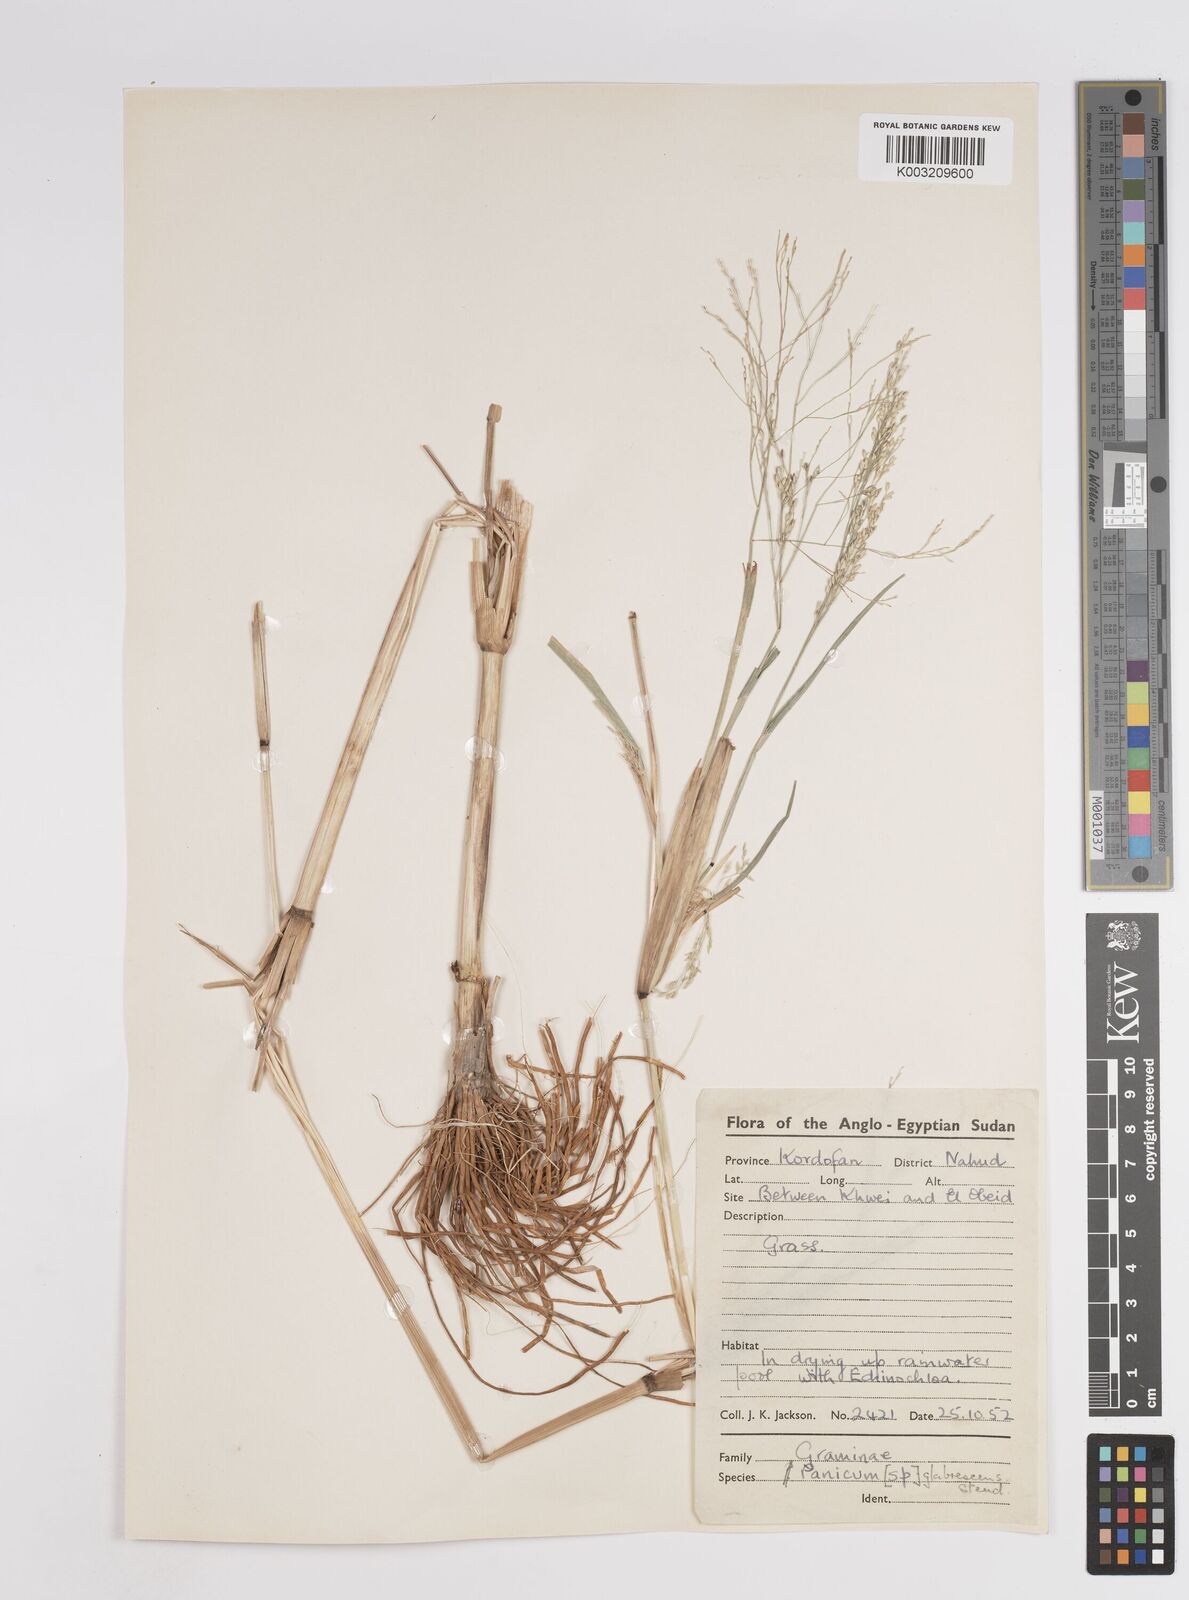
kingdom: Plantae
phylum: Tracheophyta
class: Liliopsida
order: Poales
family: Poaceae
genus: Panicum
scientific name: Panicum subalbidum
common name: Elbow buffalo grass
